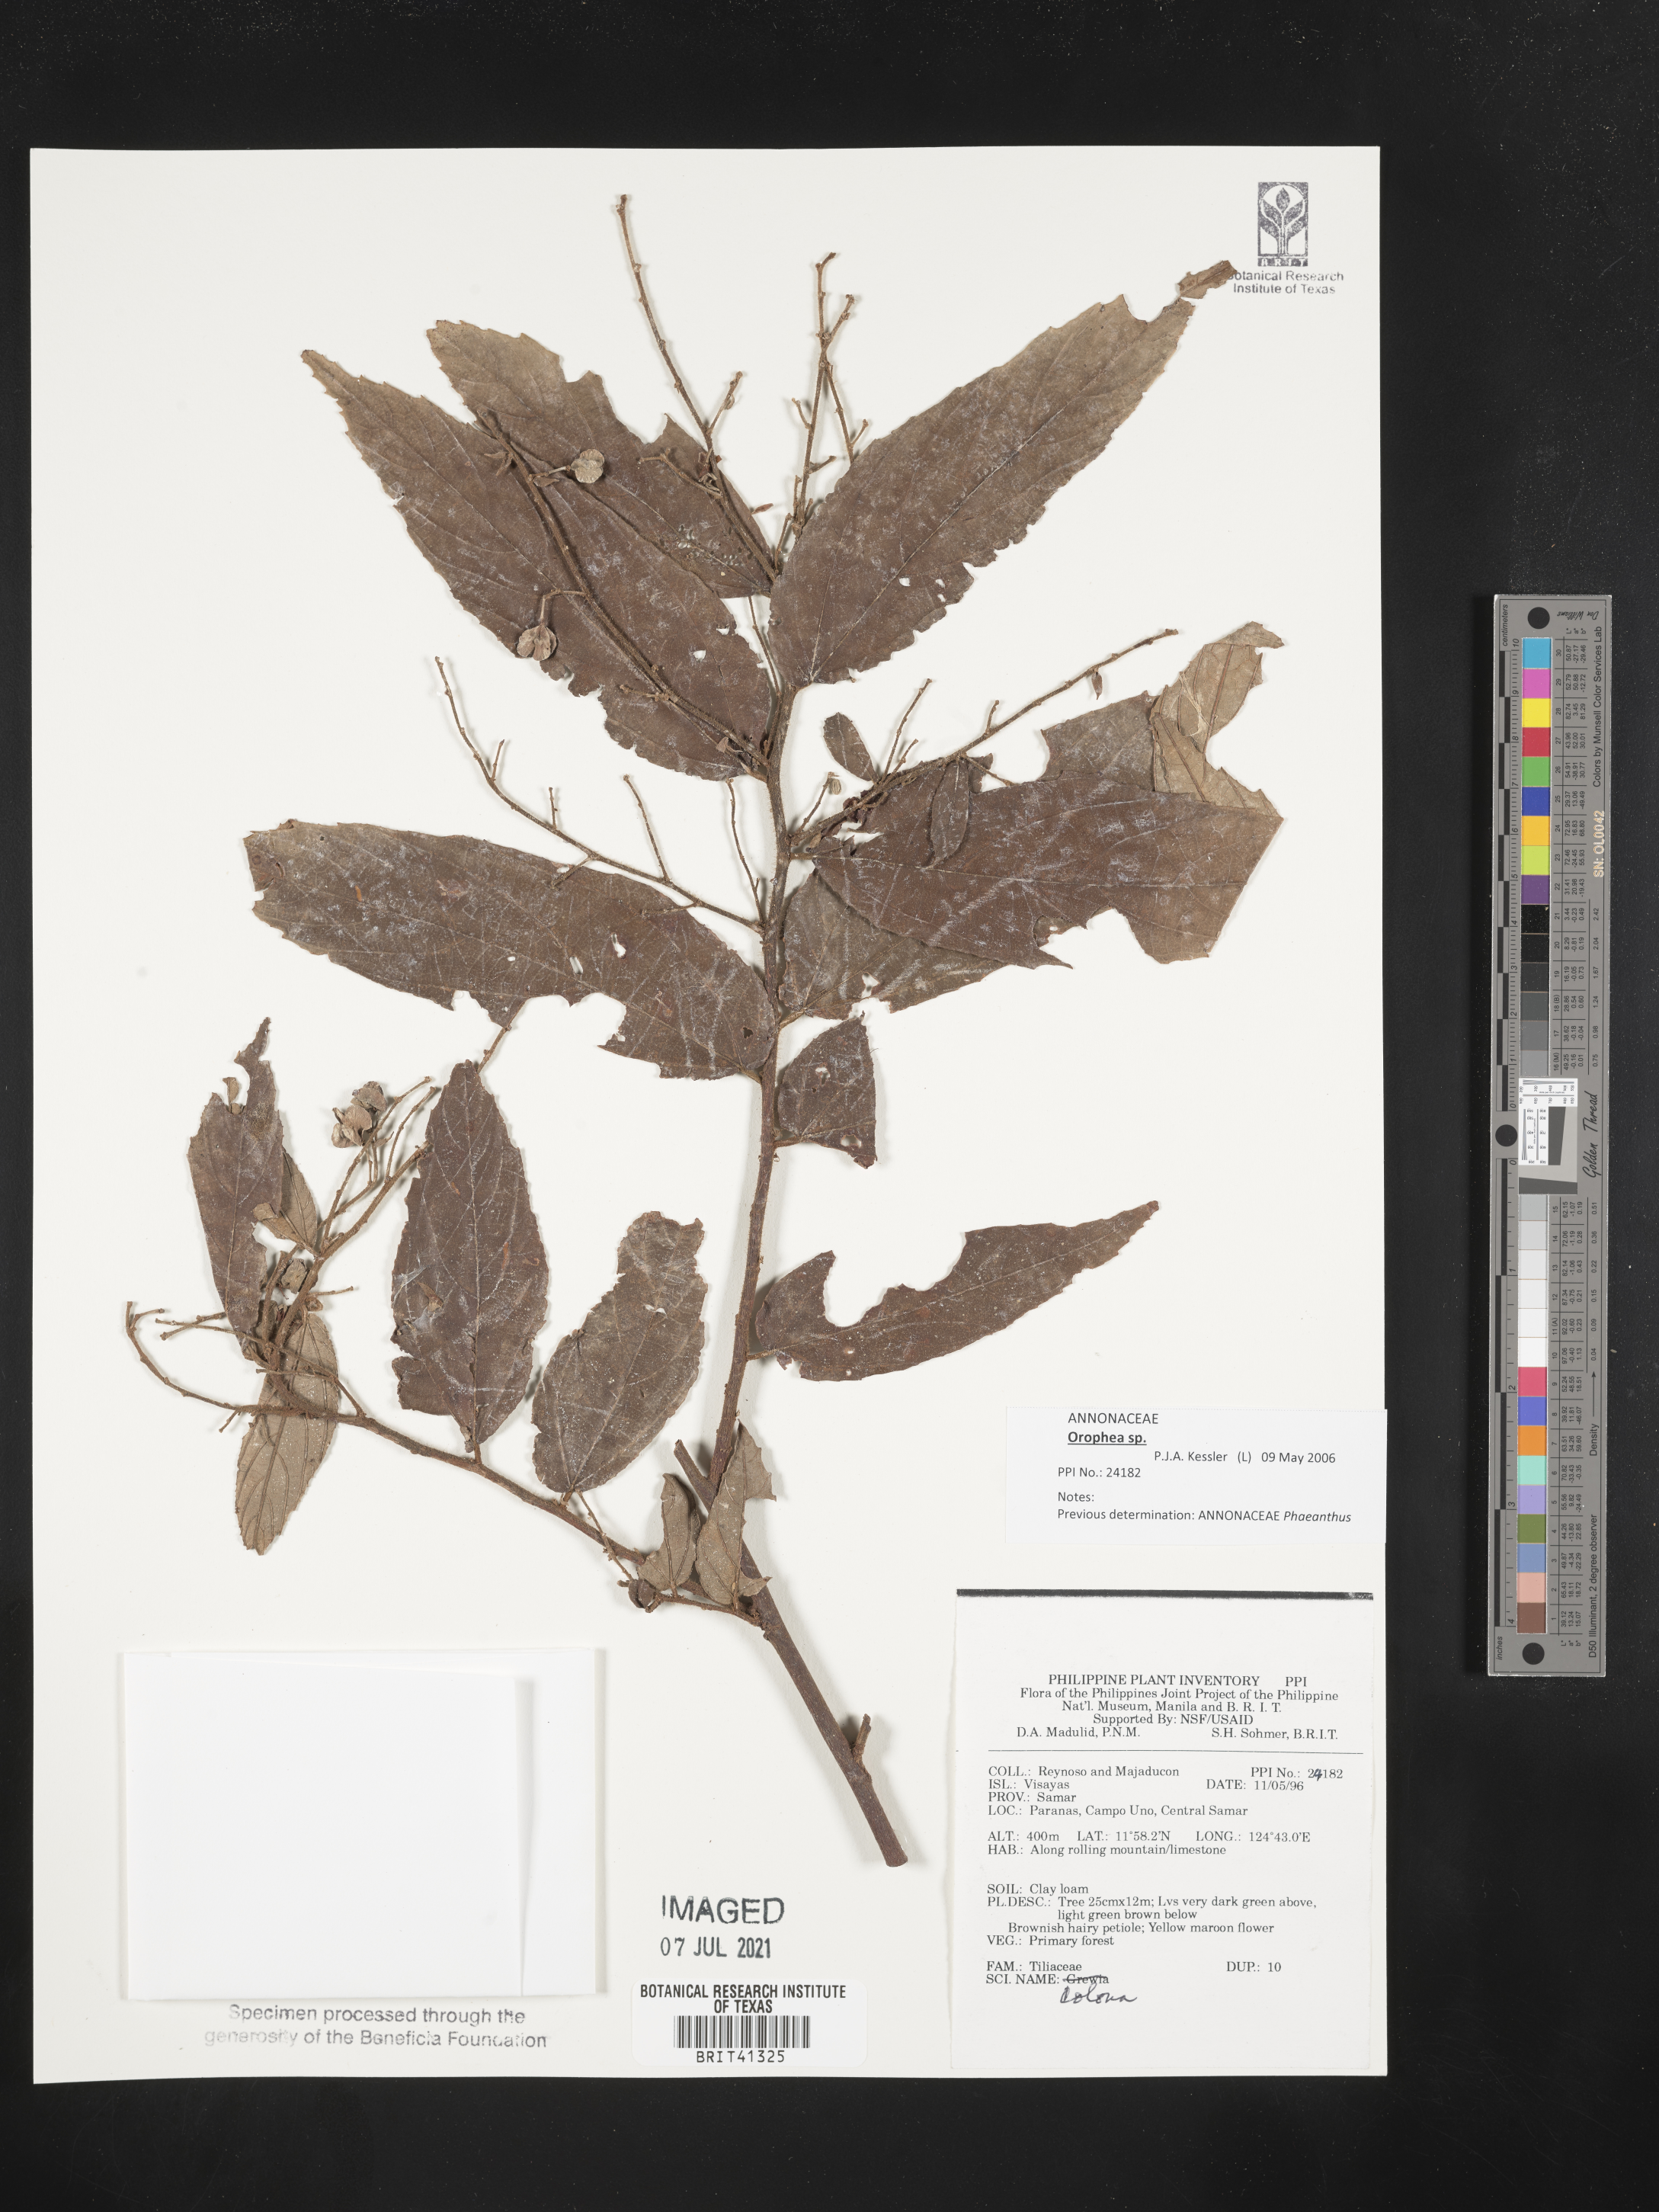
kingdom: Plantae
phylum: Tracheophyta
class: Magnoliopsida
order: Malvales
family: Malvaceae
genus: Colona
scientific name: Colona
